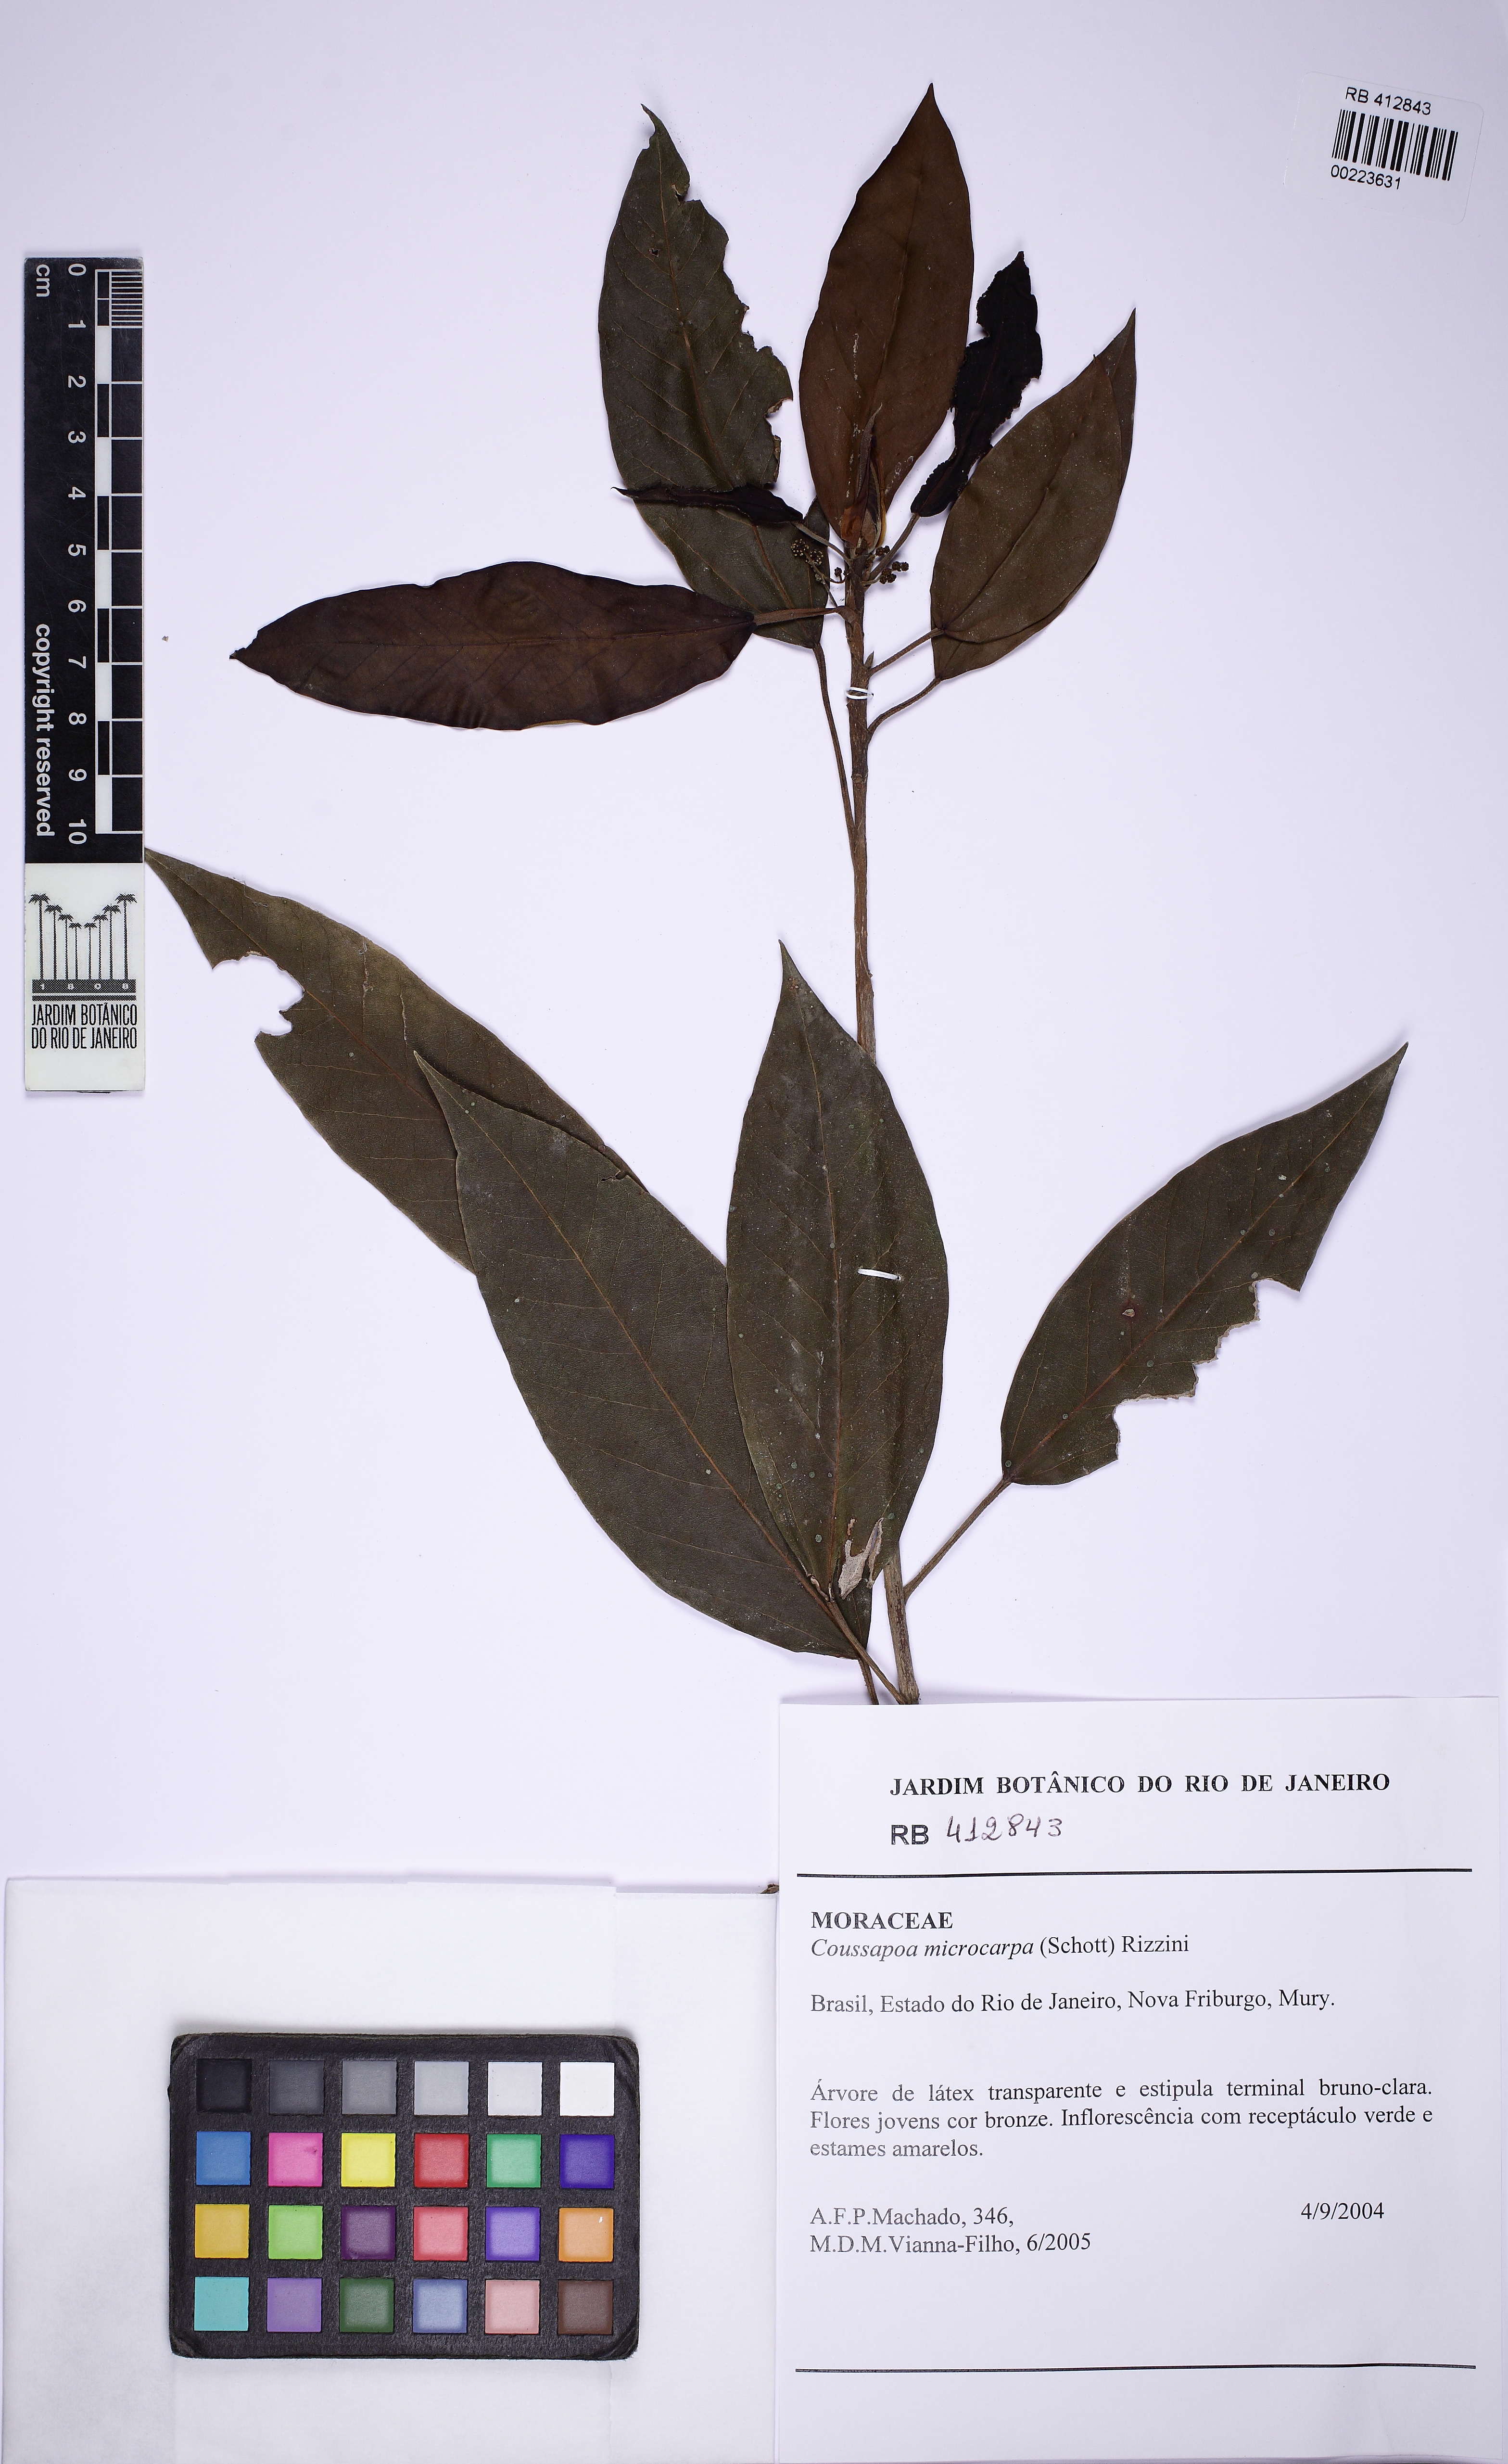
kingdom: Plantae
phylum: Tracheophyta
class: Magnoliopsida
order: Rosales
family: Urticaceae
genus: Coussapoa
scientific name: Coussapoa microcarpa
